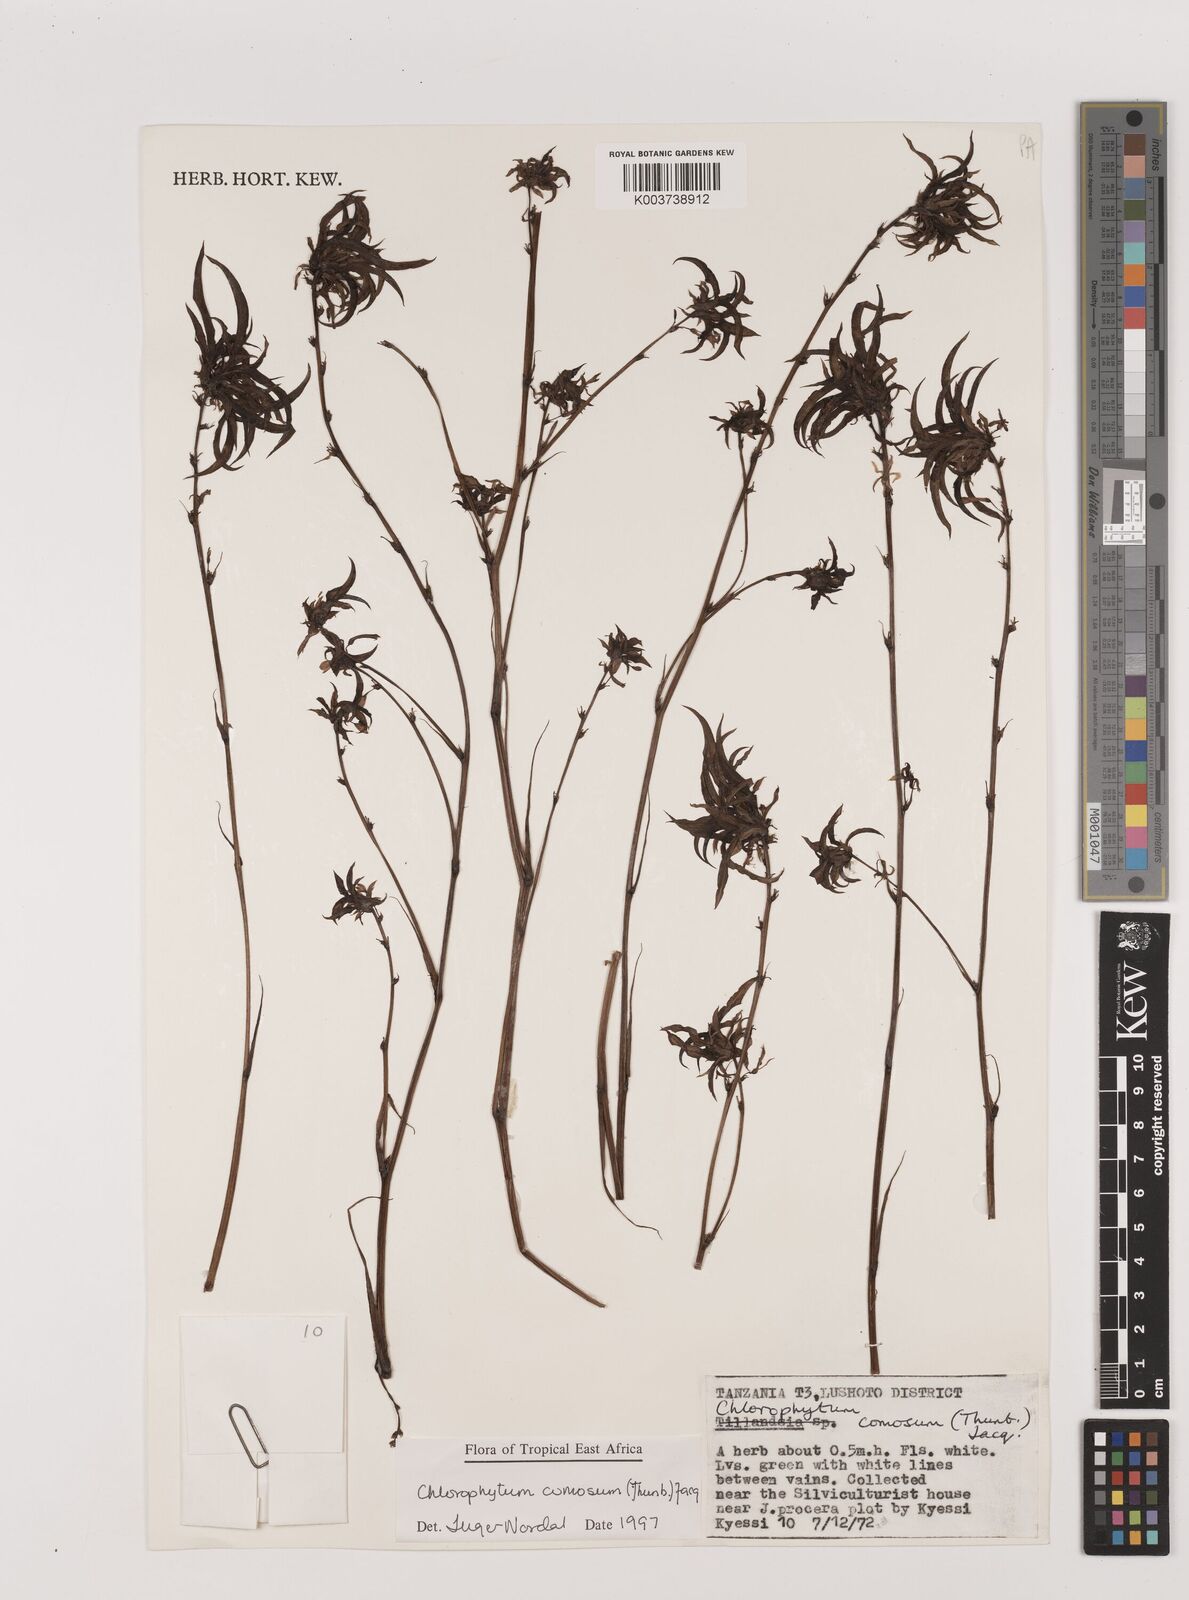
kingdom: Plantae
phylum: Tracheophyta
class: Liliopsida
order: Asparagales
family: Asparagaceae
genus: Chlorophytum
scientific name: Chlorophytum comosum
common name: Spider plant
